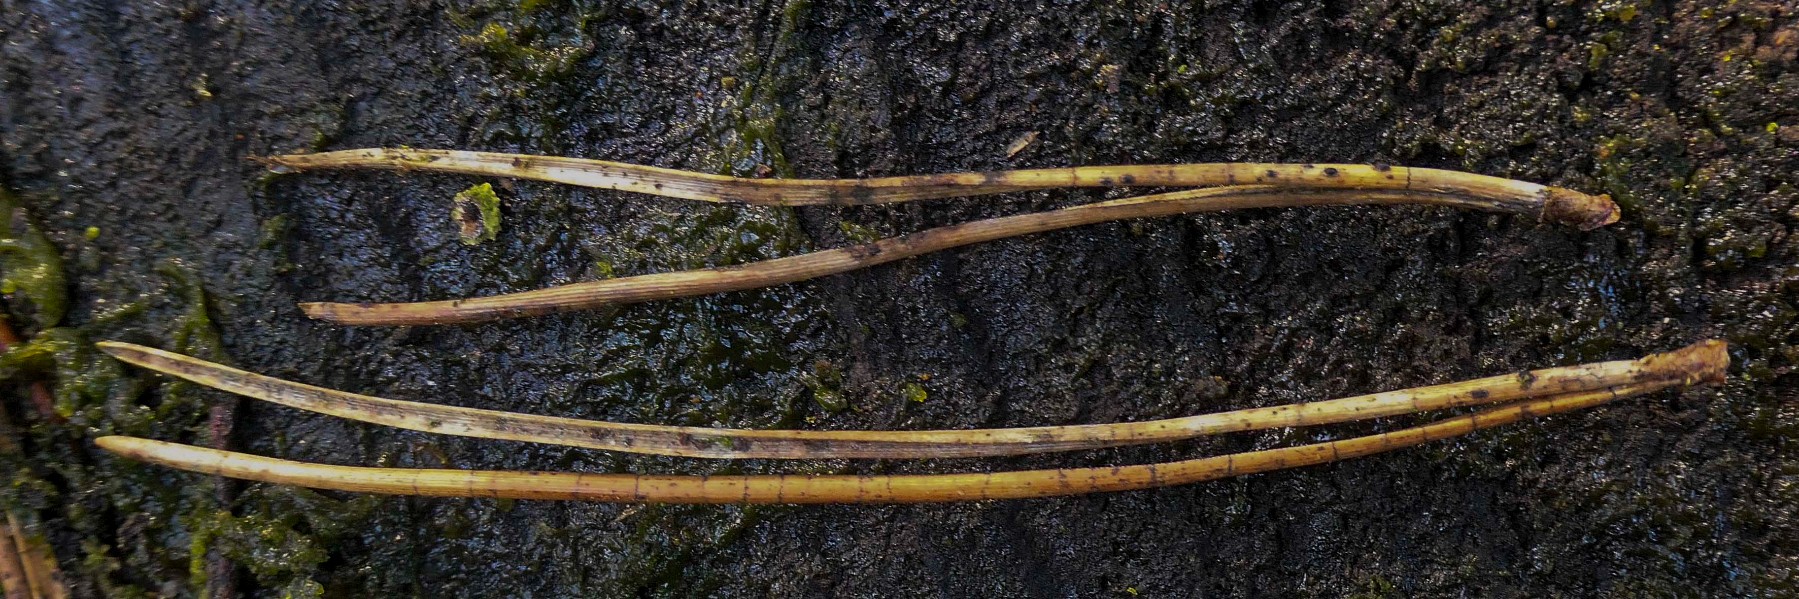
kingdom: Fungi
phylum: Ascomycota
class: Leotiomycetes
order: Rhytismatales
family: Rhytismataceae
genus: Lophodermium
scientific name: Lophodermium pinastri
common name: fyrre-fureplet
